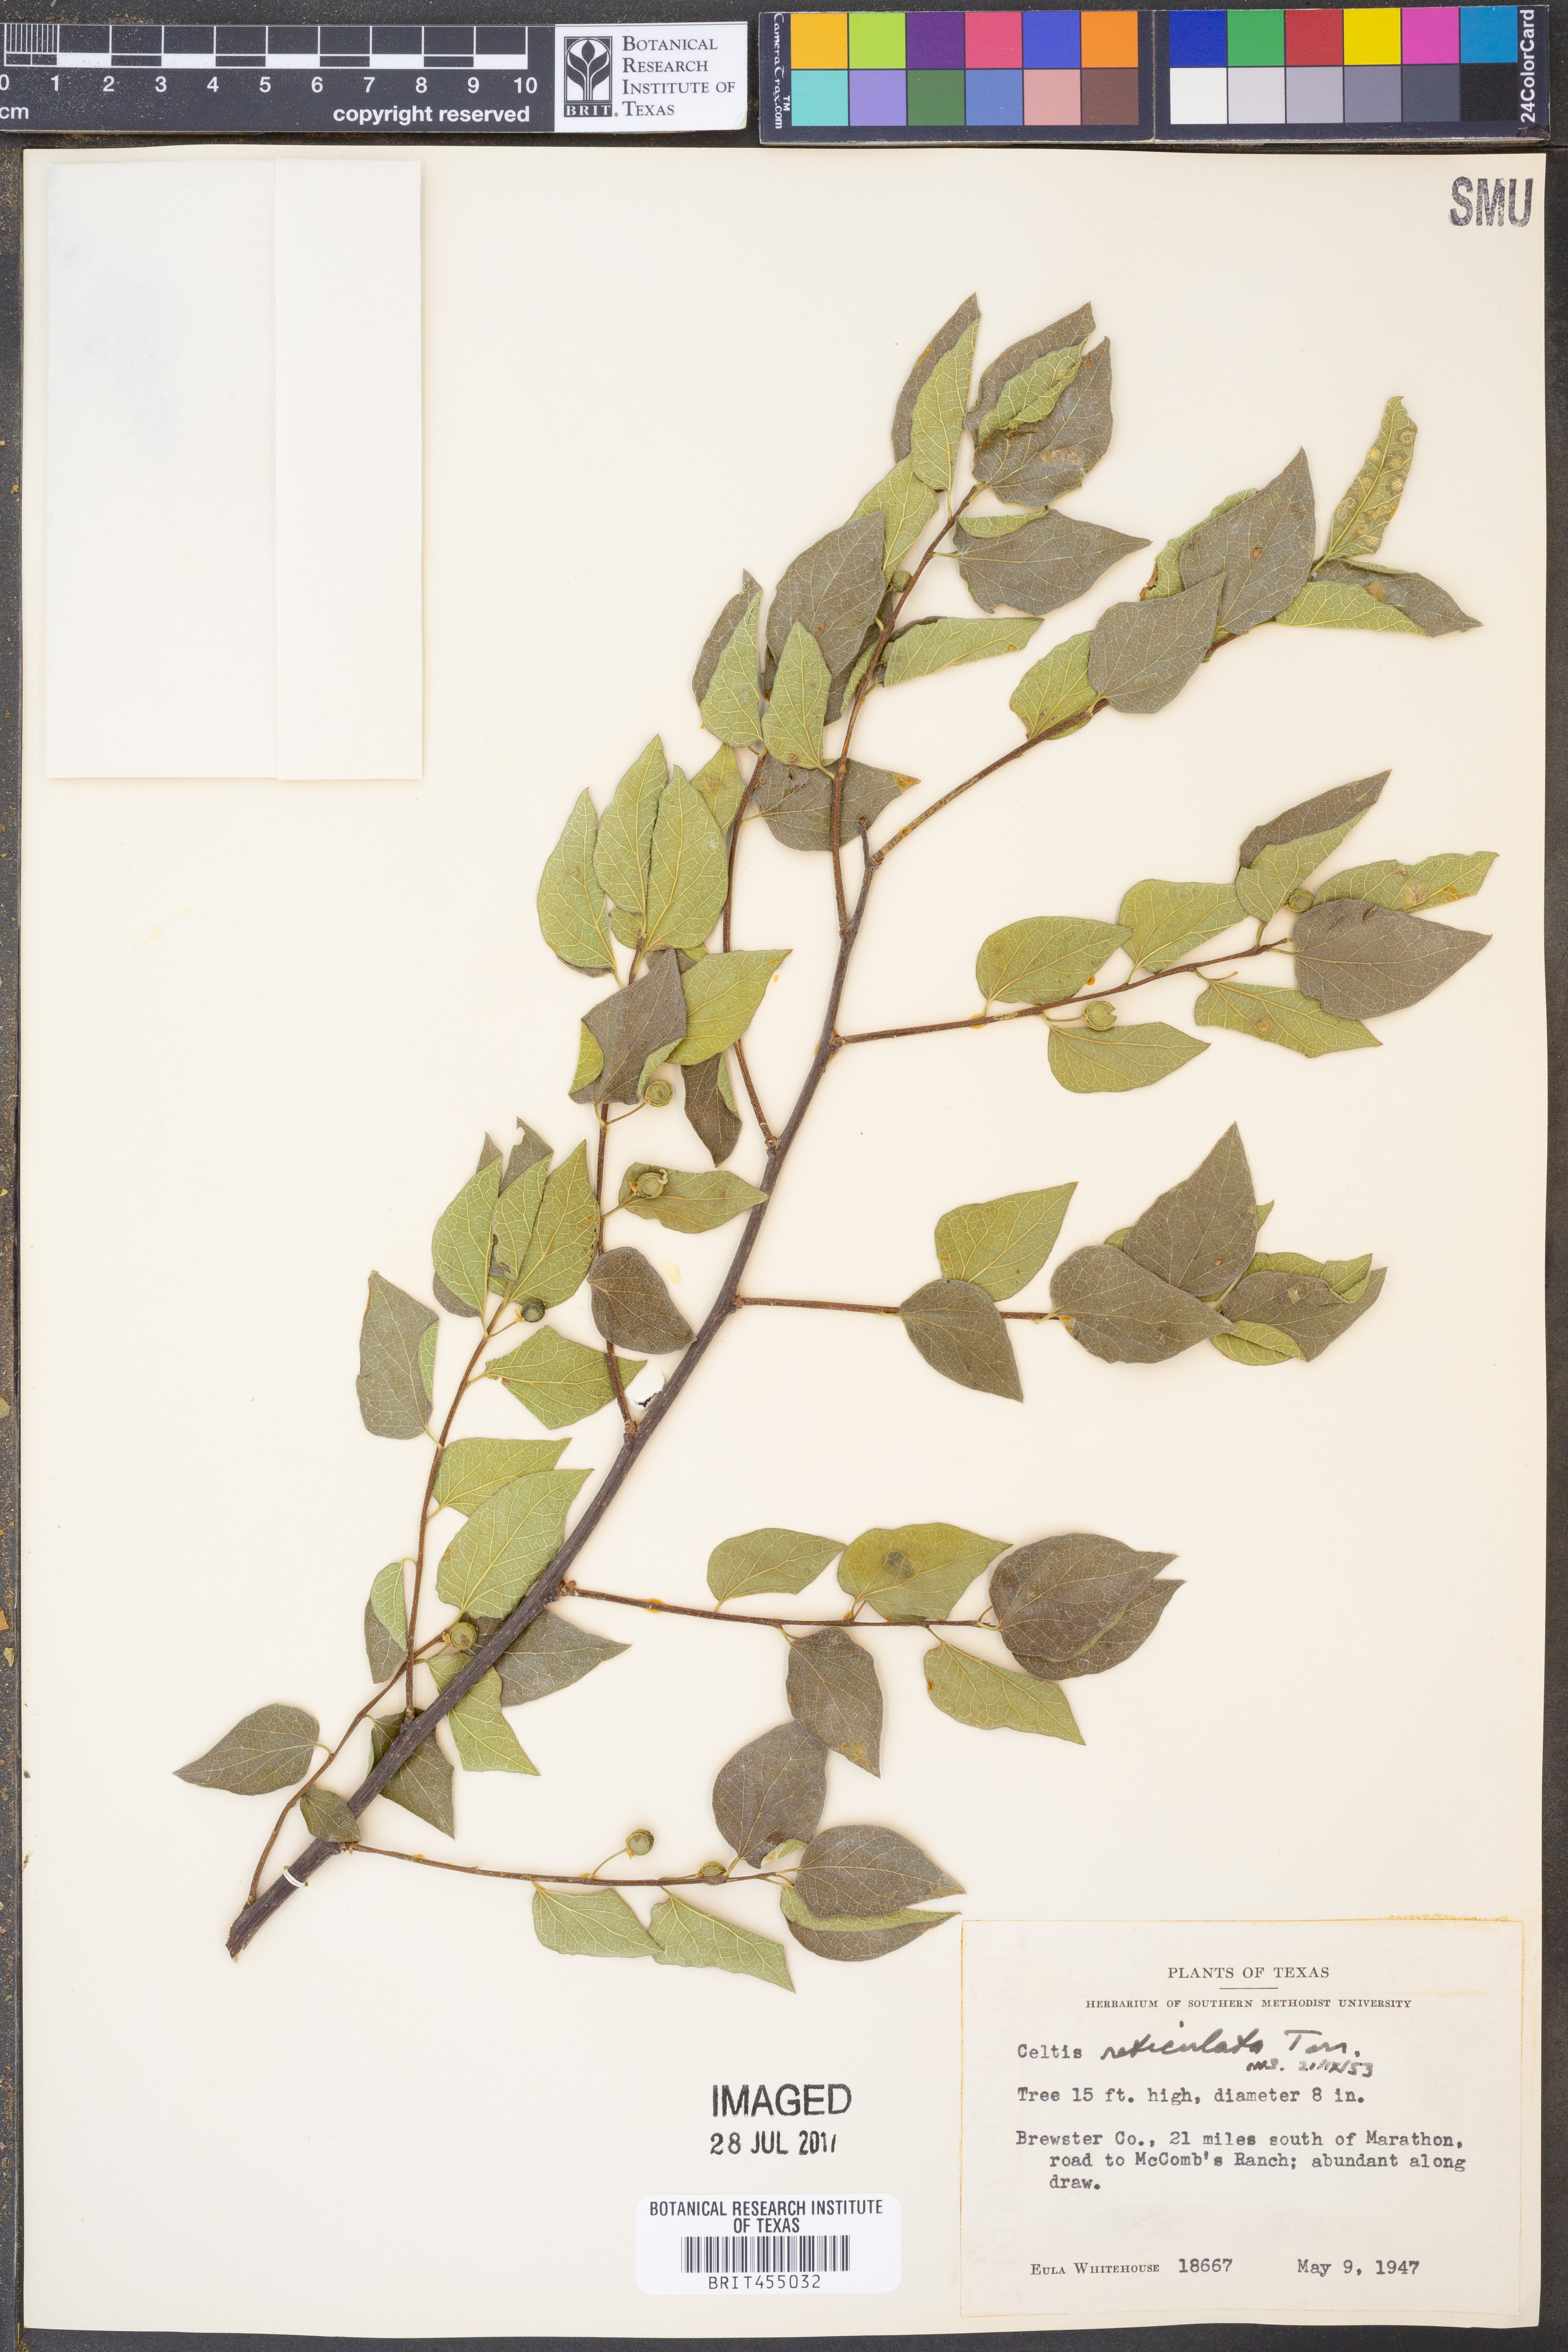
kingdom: Plantae
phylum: Tracheophyta
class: Magnoliopsida
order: Rosales
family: Cannabaceae
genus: Celtis
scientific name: Celtis reticulata
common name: Netleaf hackberry
